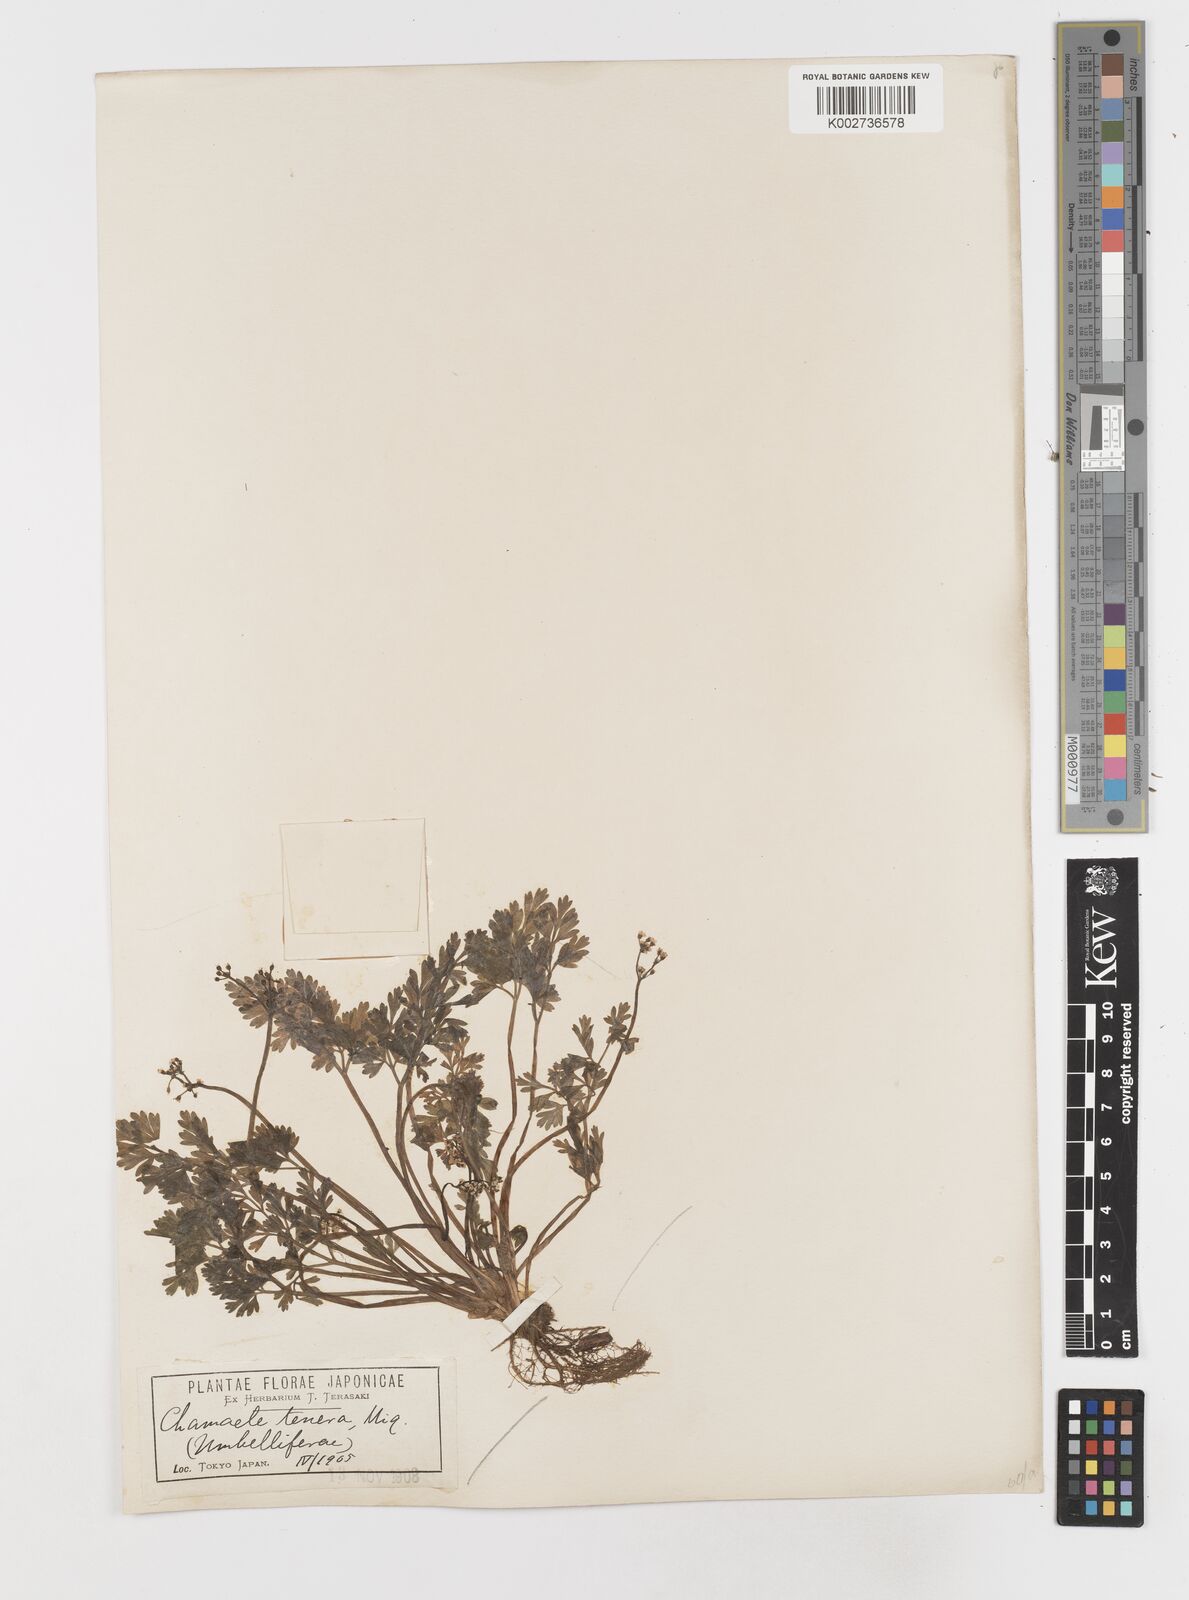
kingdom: Plantae
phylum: Tracheophyta
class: Magnoliopsida
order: Apiales
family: Apiaceae
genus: Aegopodium
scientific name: Aegopodium decumbens
